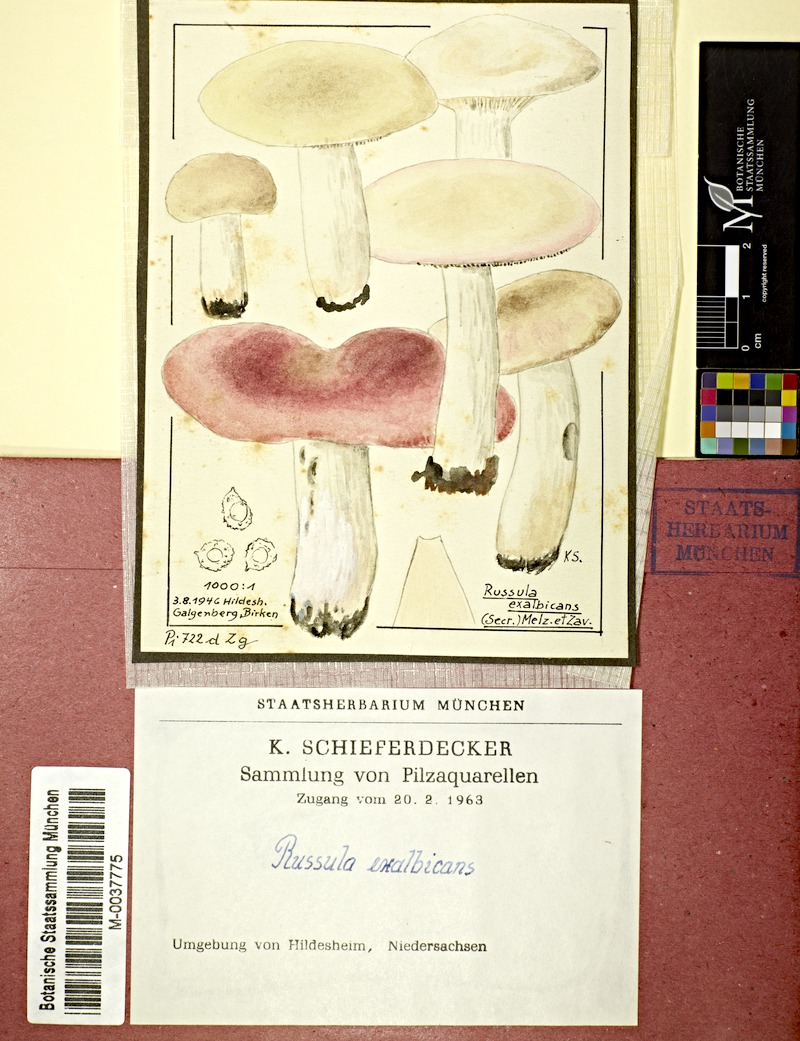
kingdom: Fungi
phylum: Basidiomycota
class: Agaricomycetes
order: Russulales
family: Russulaceae
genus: Russula
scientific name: Russula exalbicans
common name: Bleached brittlegill
